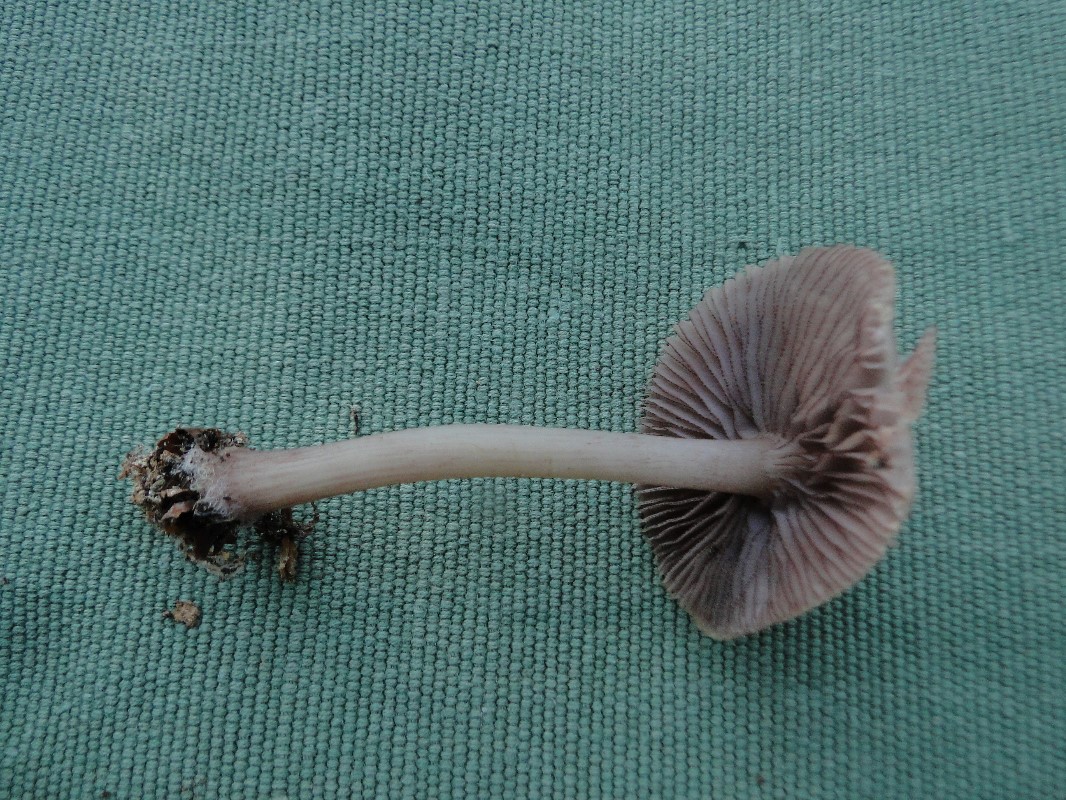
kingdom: Fungi
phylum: Basidiomycota
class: Agaricomycetes
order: Agaricales
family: Mycenaceae
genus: Mycena
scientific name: Mycena pelianthina
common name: mørkbladet huesvamp
